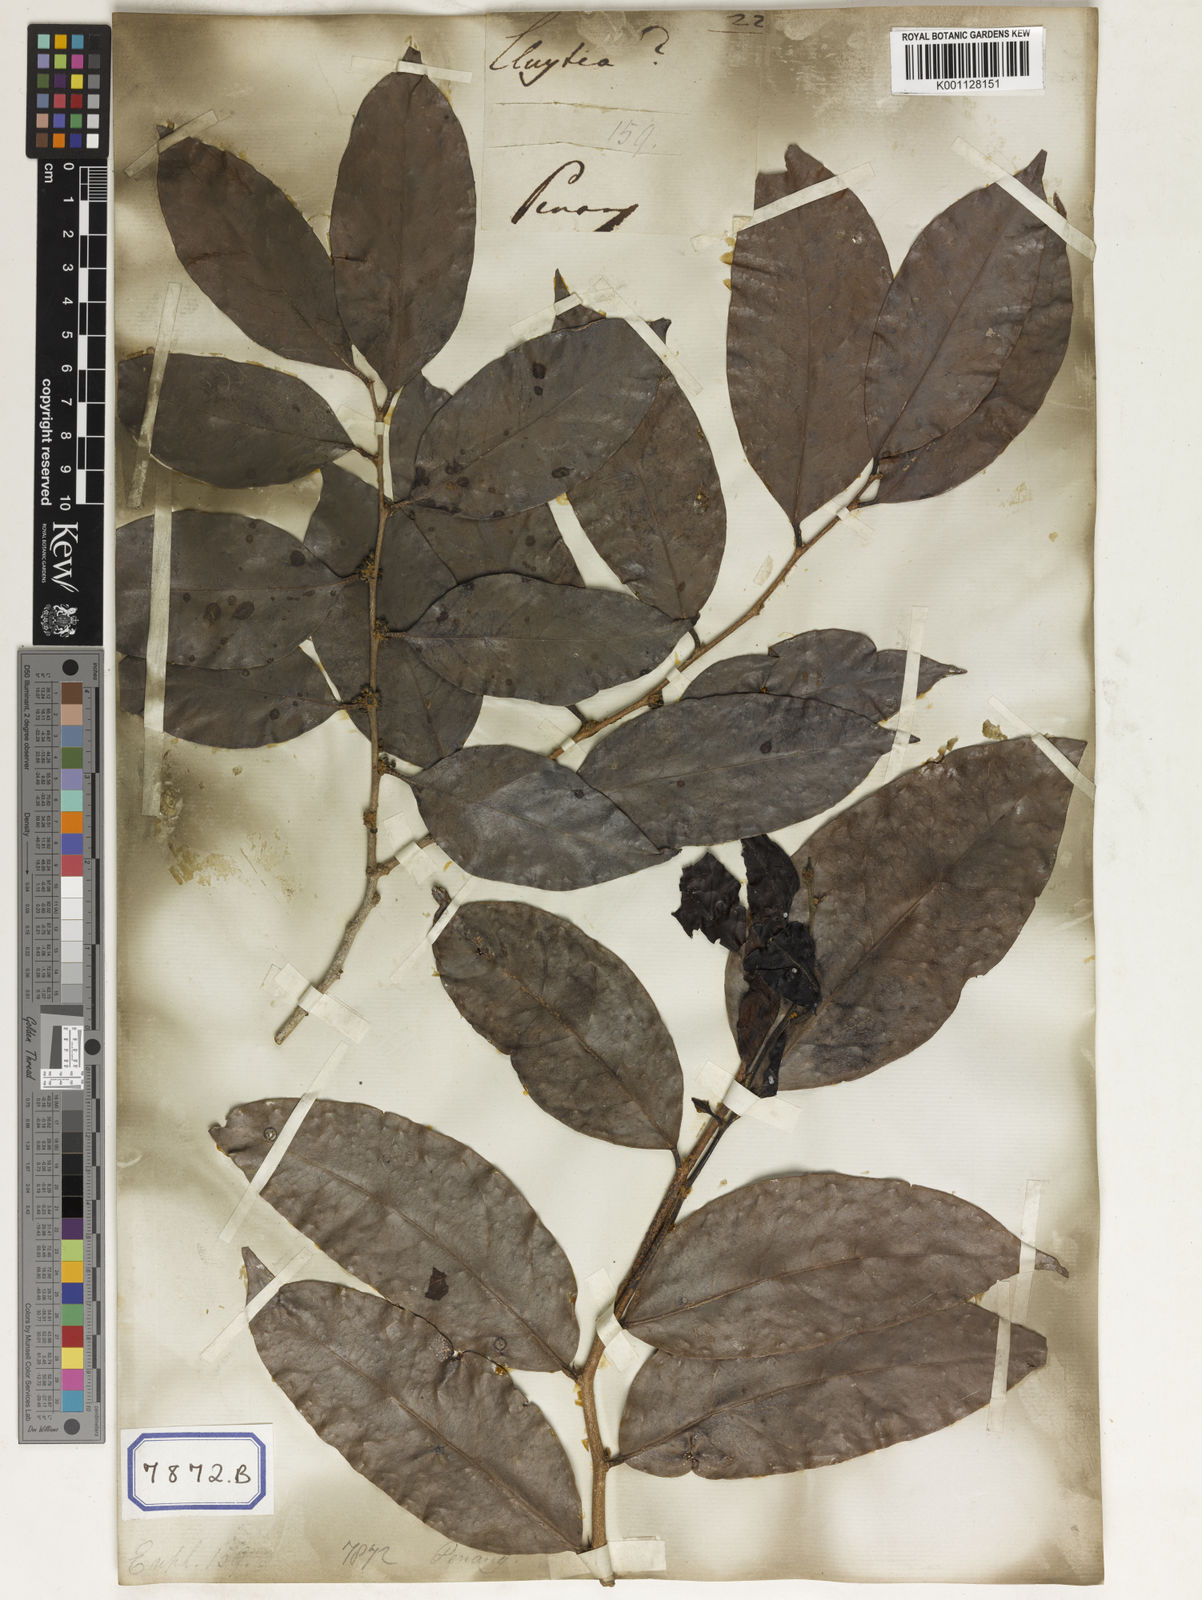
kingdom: Plantae
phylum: Tracheophyta
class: Magnoliopsida
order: Malpighiales
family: Euphorbiaceae
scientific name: Euphorbiaceae
